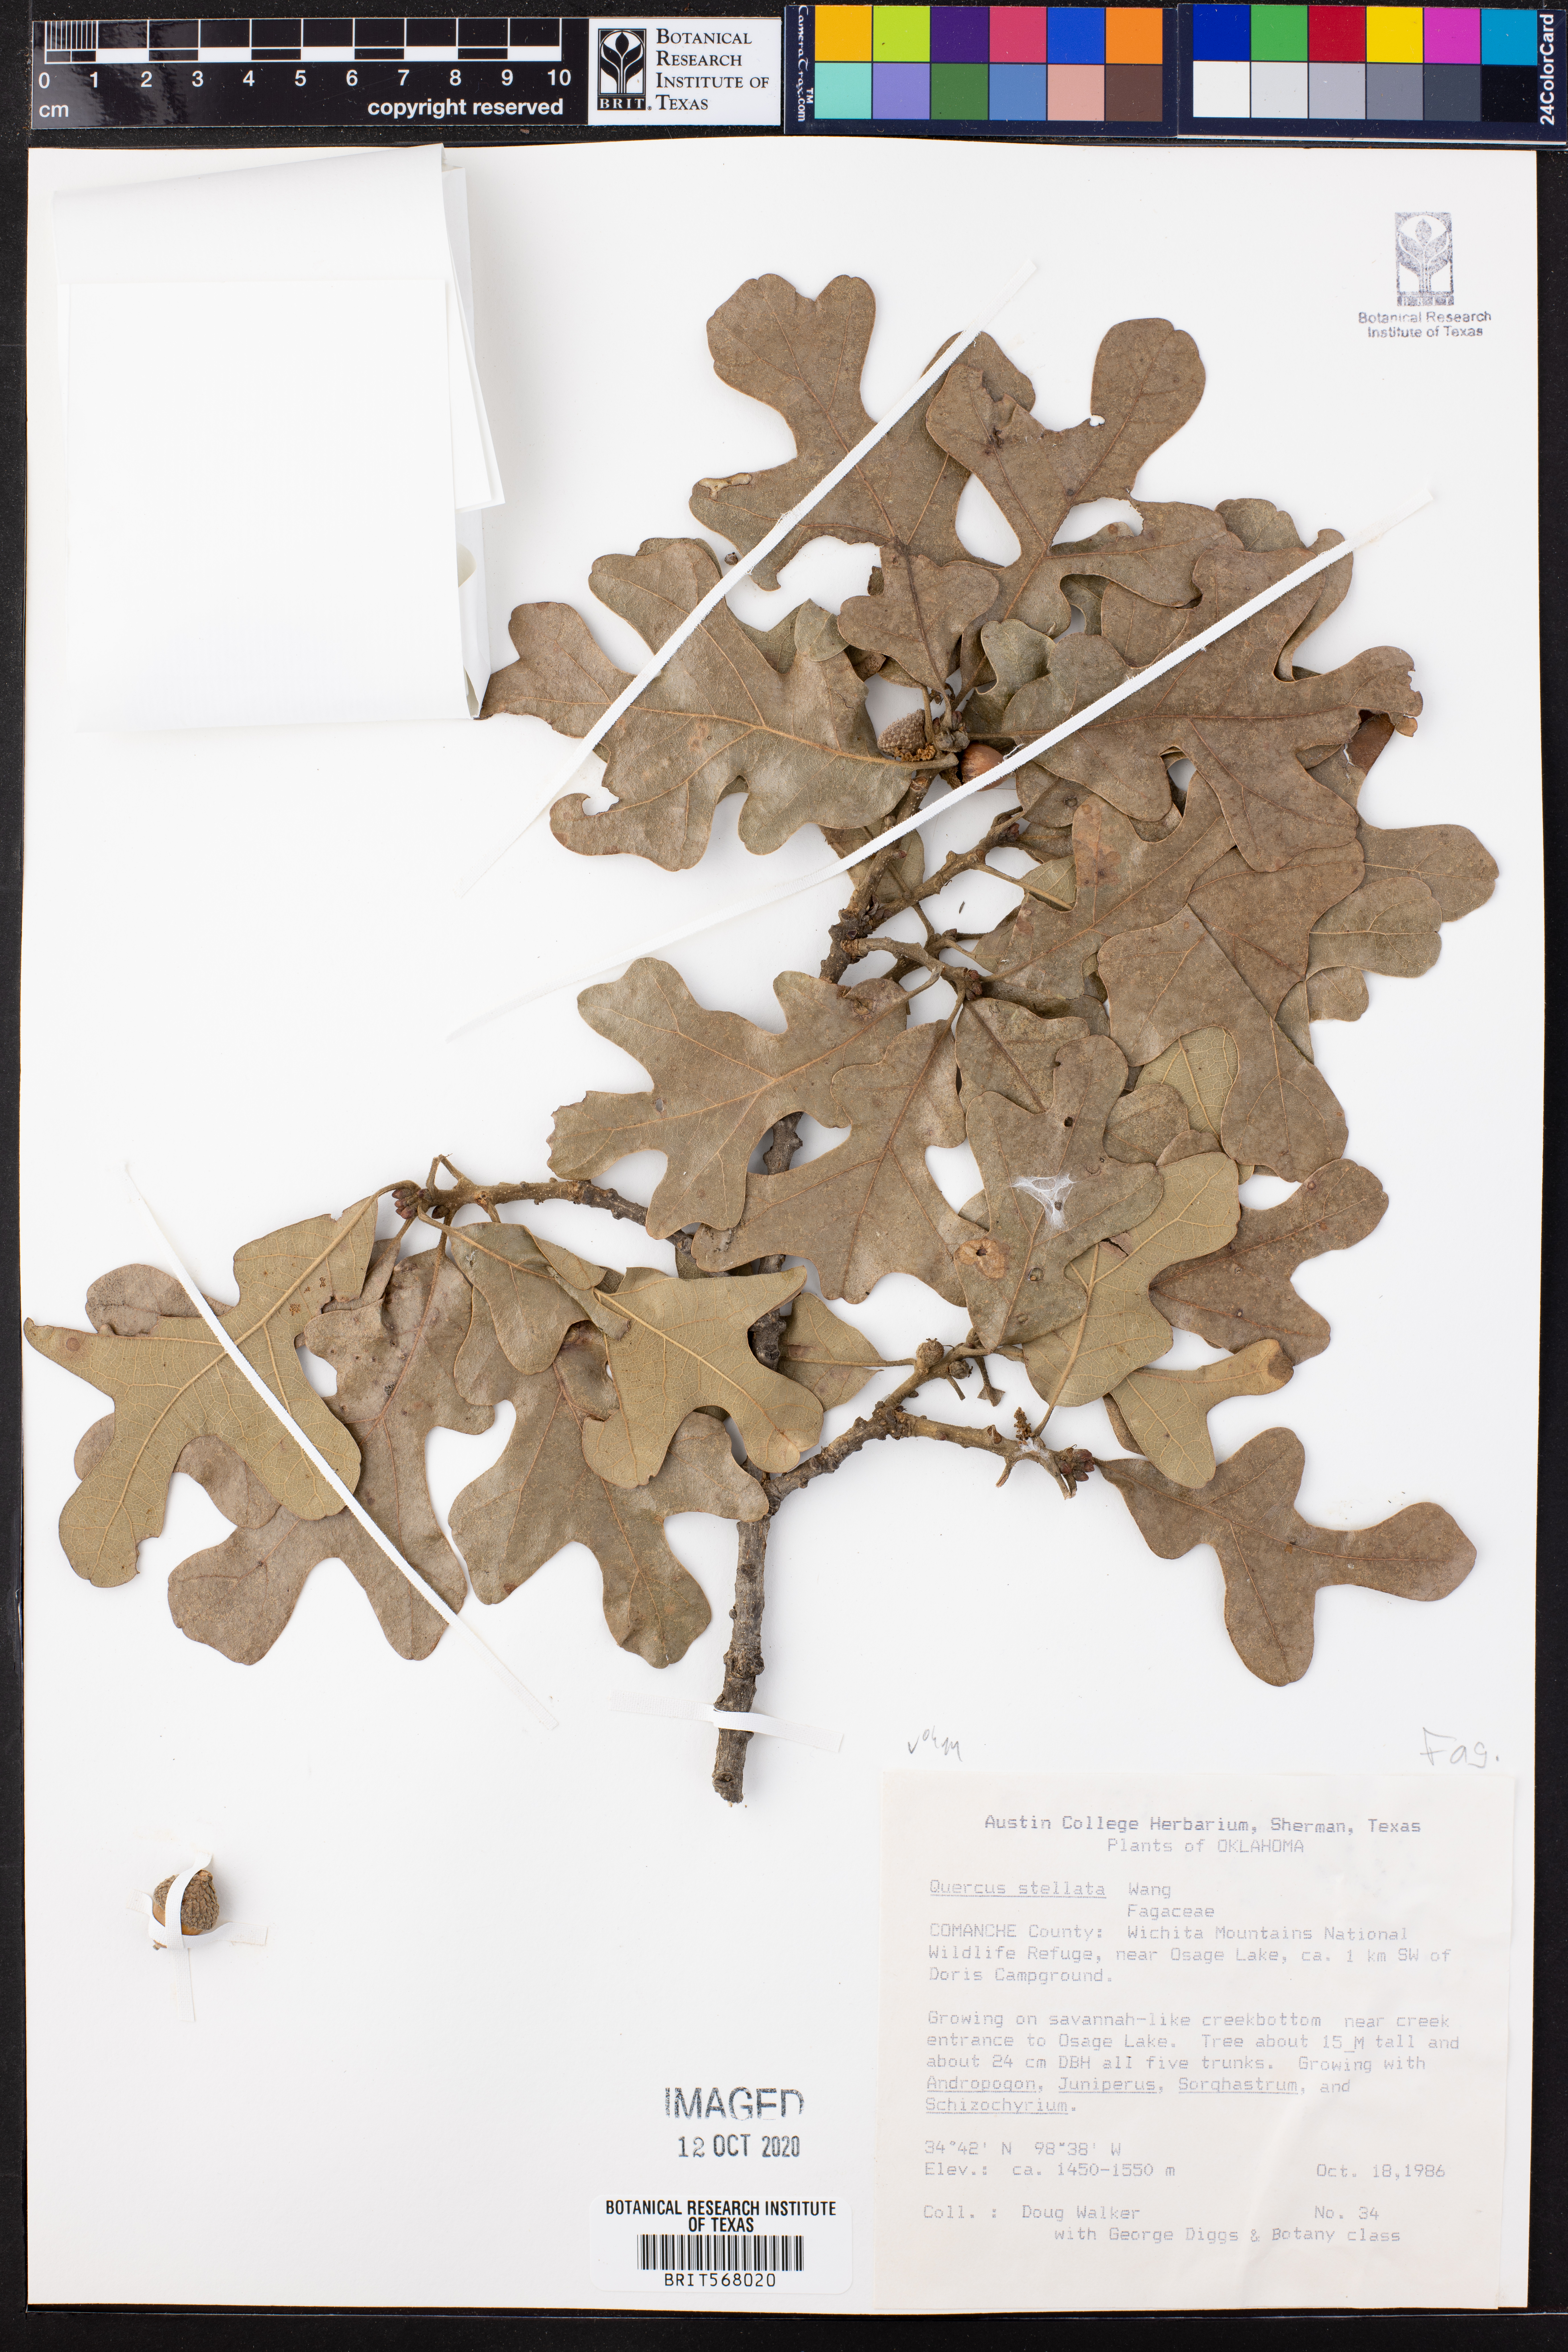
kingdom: Plantae
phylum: Tracheophyta
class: Magnoliopsida
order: Fagales
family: Fagaceae
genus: Quercus
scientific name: Quercus stellata
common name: Post oak
